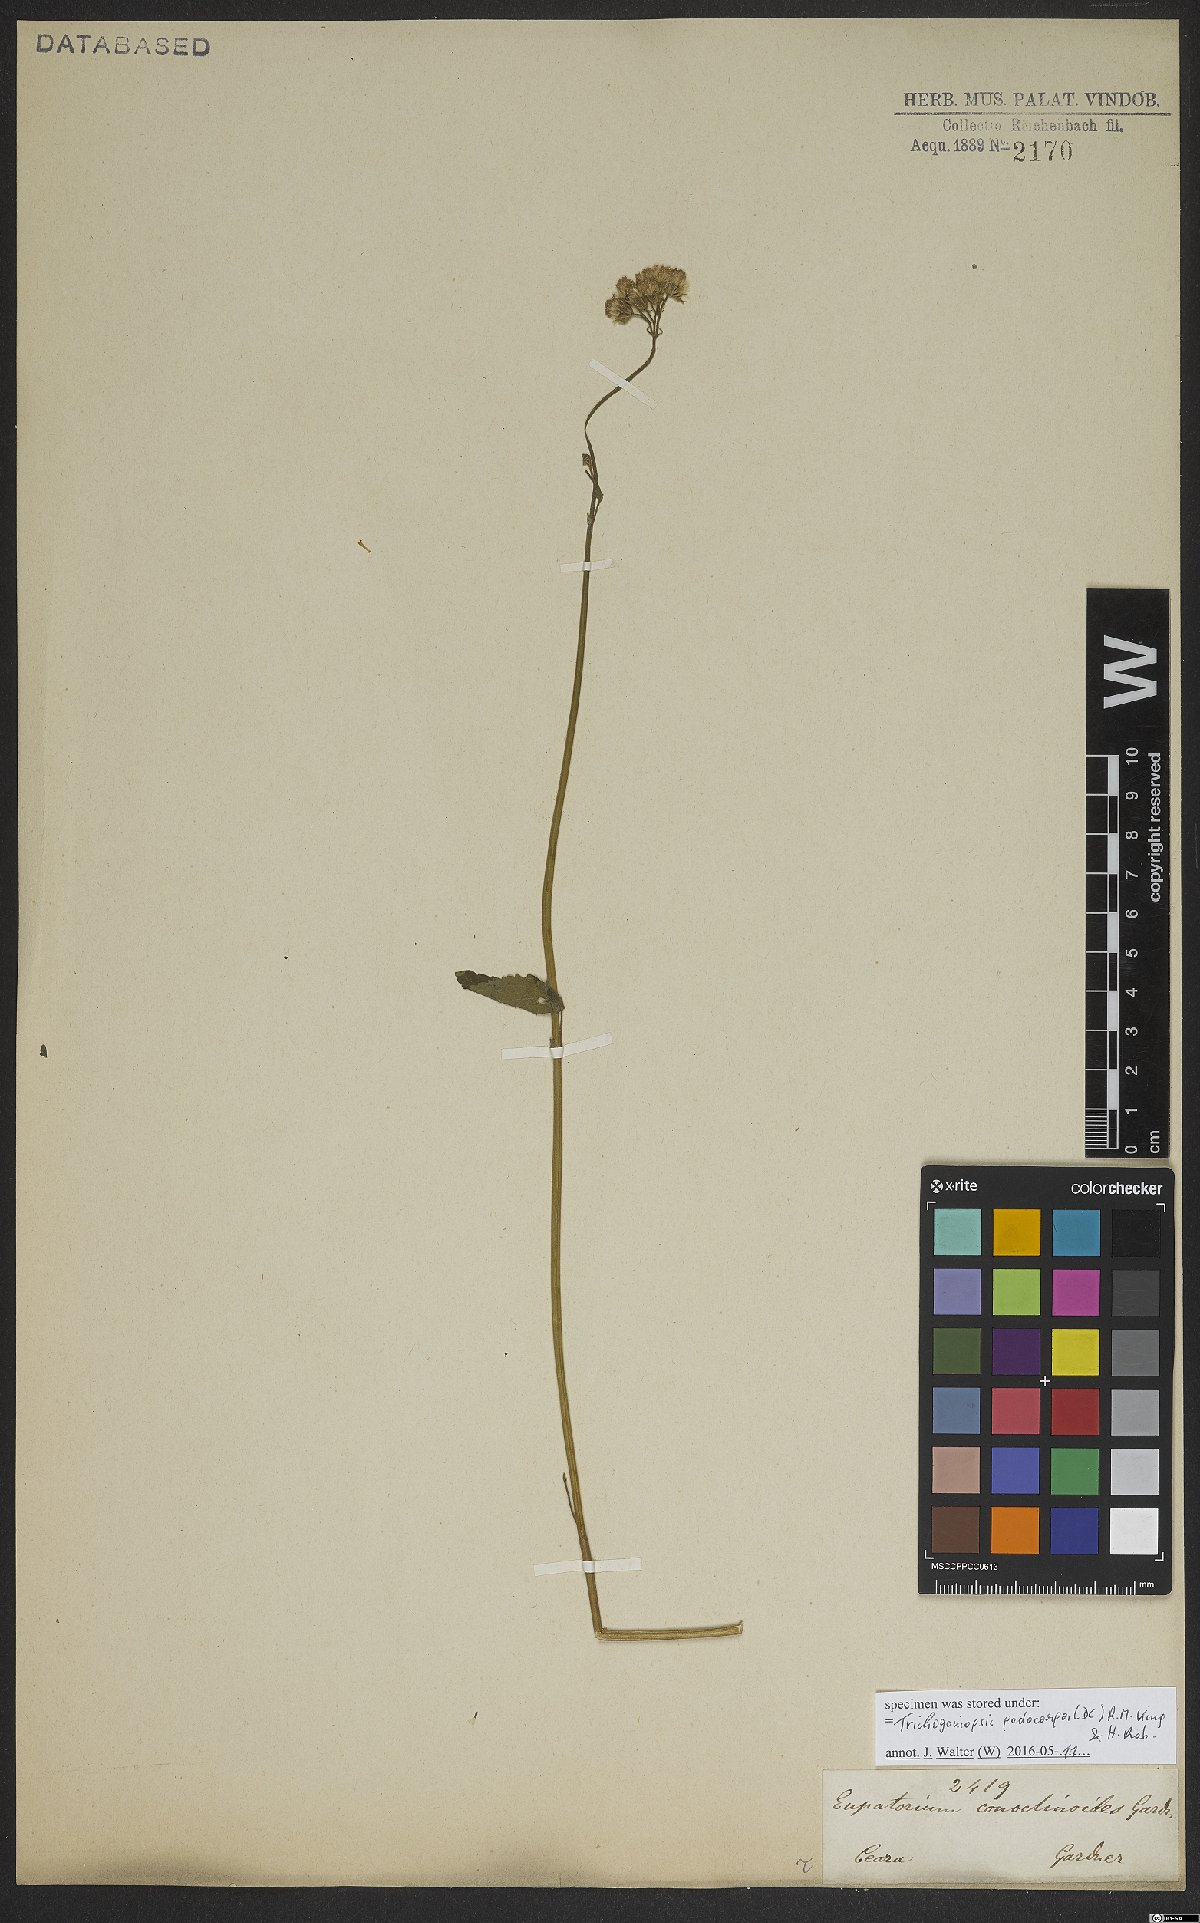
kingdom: Plantae
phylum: Tracheophyta
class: Magnoliopsida
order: Asterales
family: Asteraceae
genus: Praxelis
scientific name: Praxelis conoclinanthia
